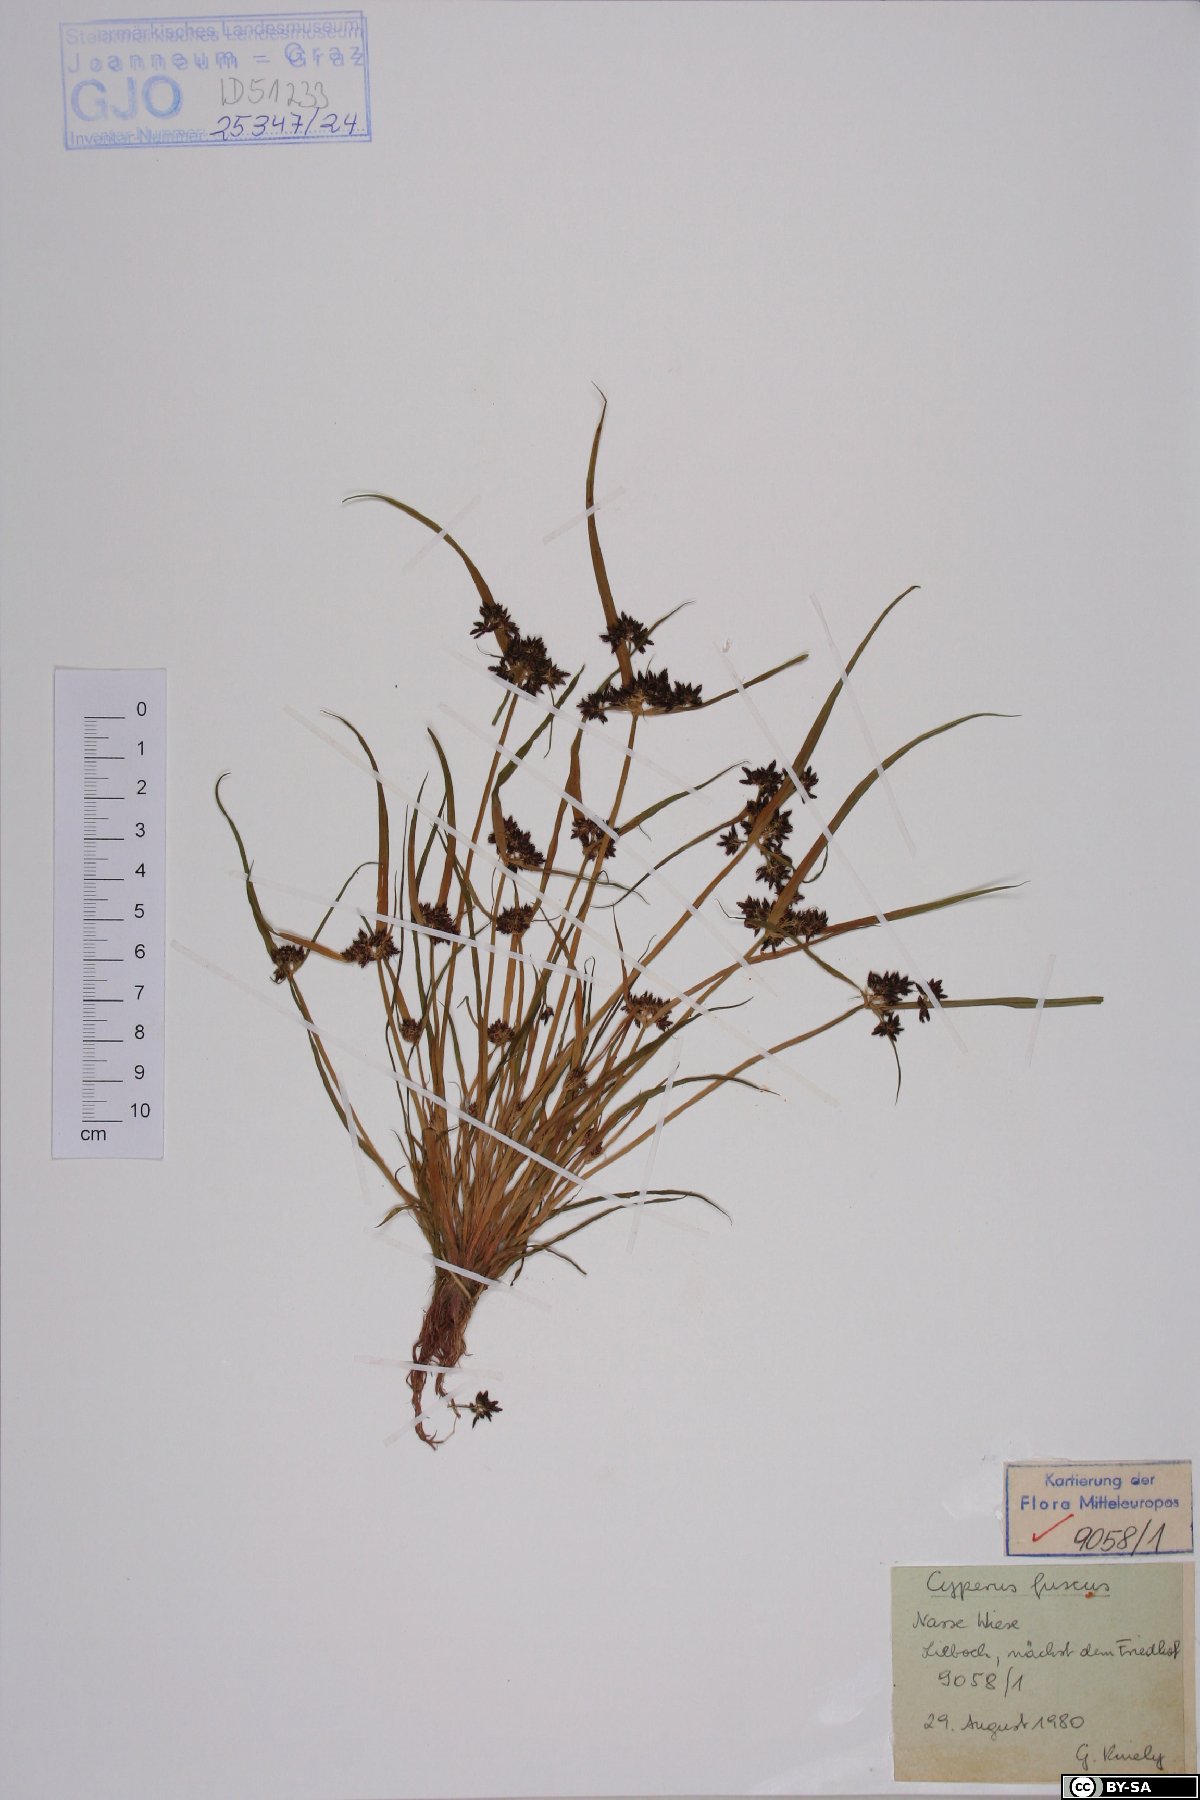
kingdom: Plantae
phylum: Tracheophyta
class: Liliopsida
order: Poales
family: Cyperaceae
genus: Cyperus
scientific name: Cyperus fuscus
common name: Brown galingale
